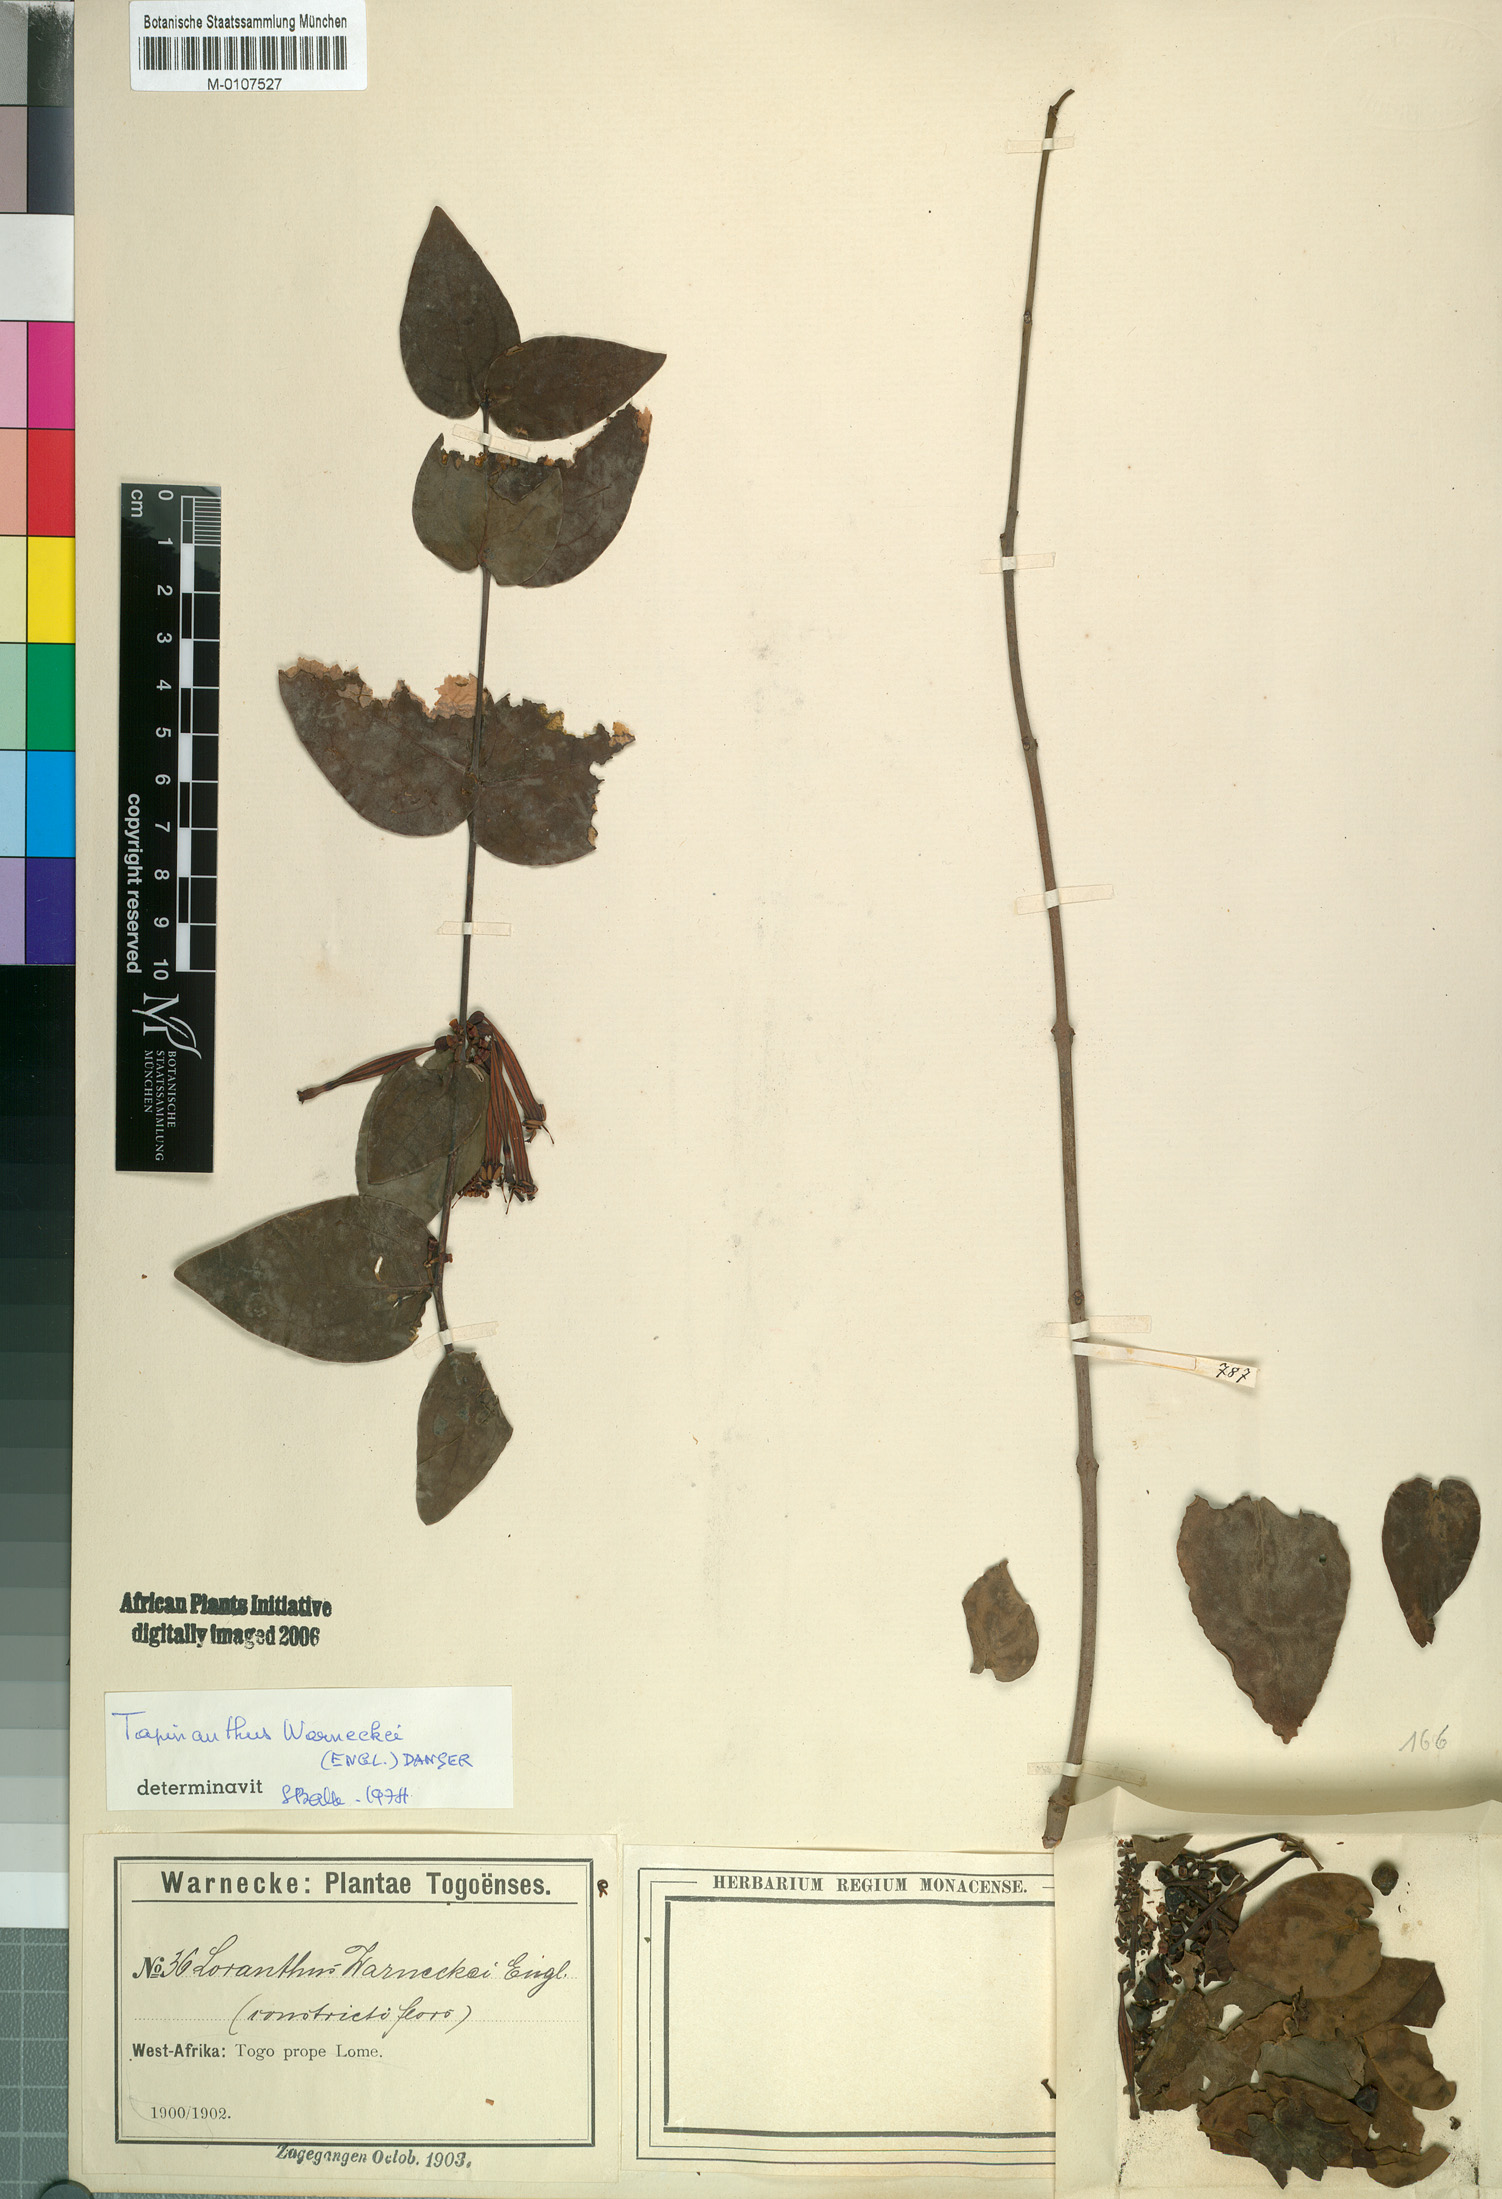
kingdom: Plantae
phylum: Tracheophyta
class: Magnoliopsida
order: Santalales
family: Loranthaceae
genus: Tapinanthus
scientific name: Tapinanthus sessilifolius
